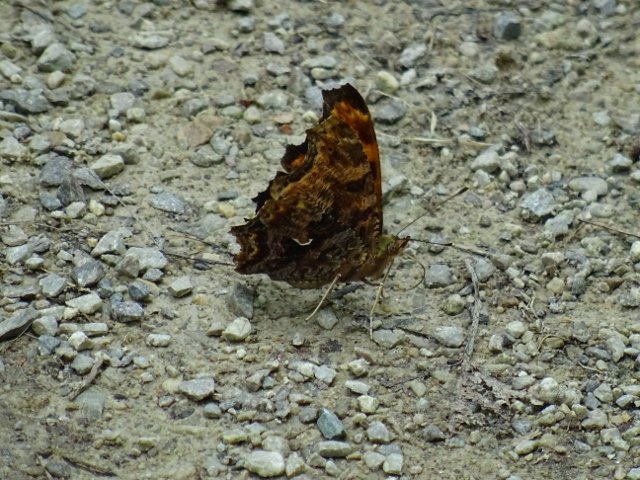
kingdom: Animalia
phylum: Arthropoda
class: Insecta
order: Lepidoptera
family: Nymphalidae
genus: Polygonia
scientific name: Polygonia comma
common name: Eastern Comma
